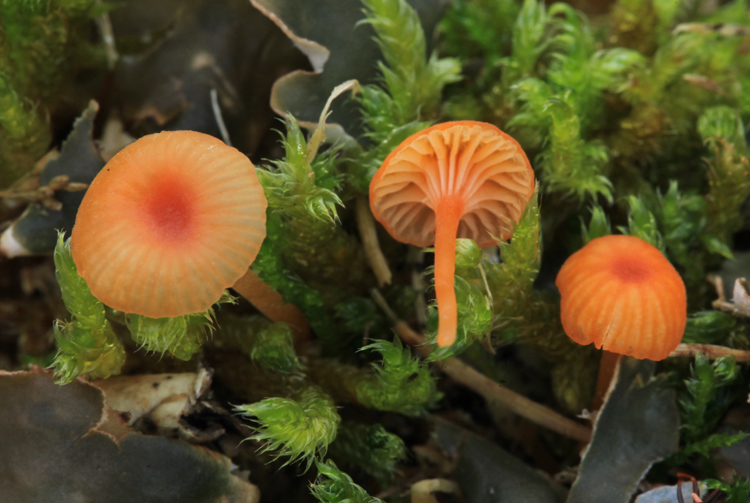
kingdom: Fungi
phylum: Basidiomycota
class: Agaricomycetes
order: Hymenochaetales
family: Rickenellaceae
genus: Rickenella
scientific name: Rickenella fibula
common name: orange mosnavlehat
